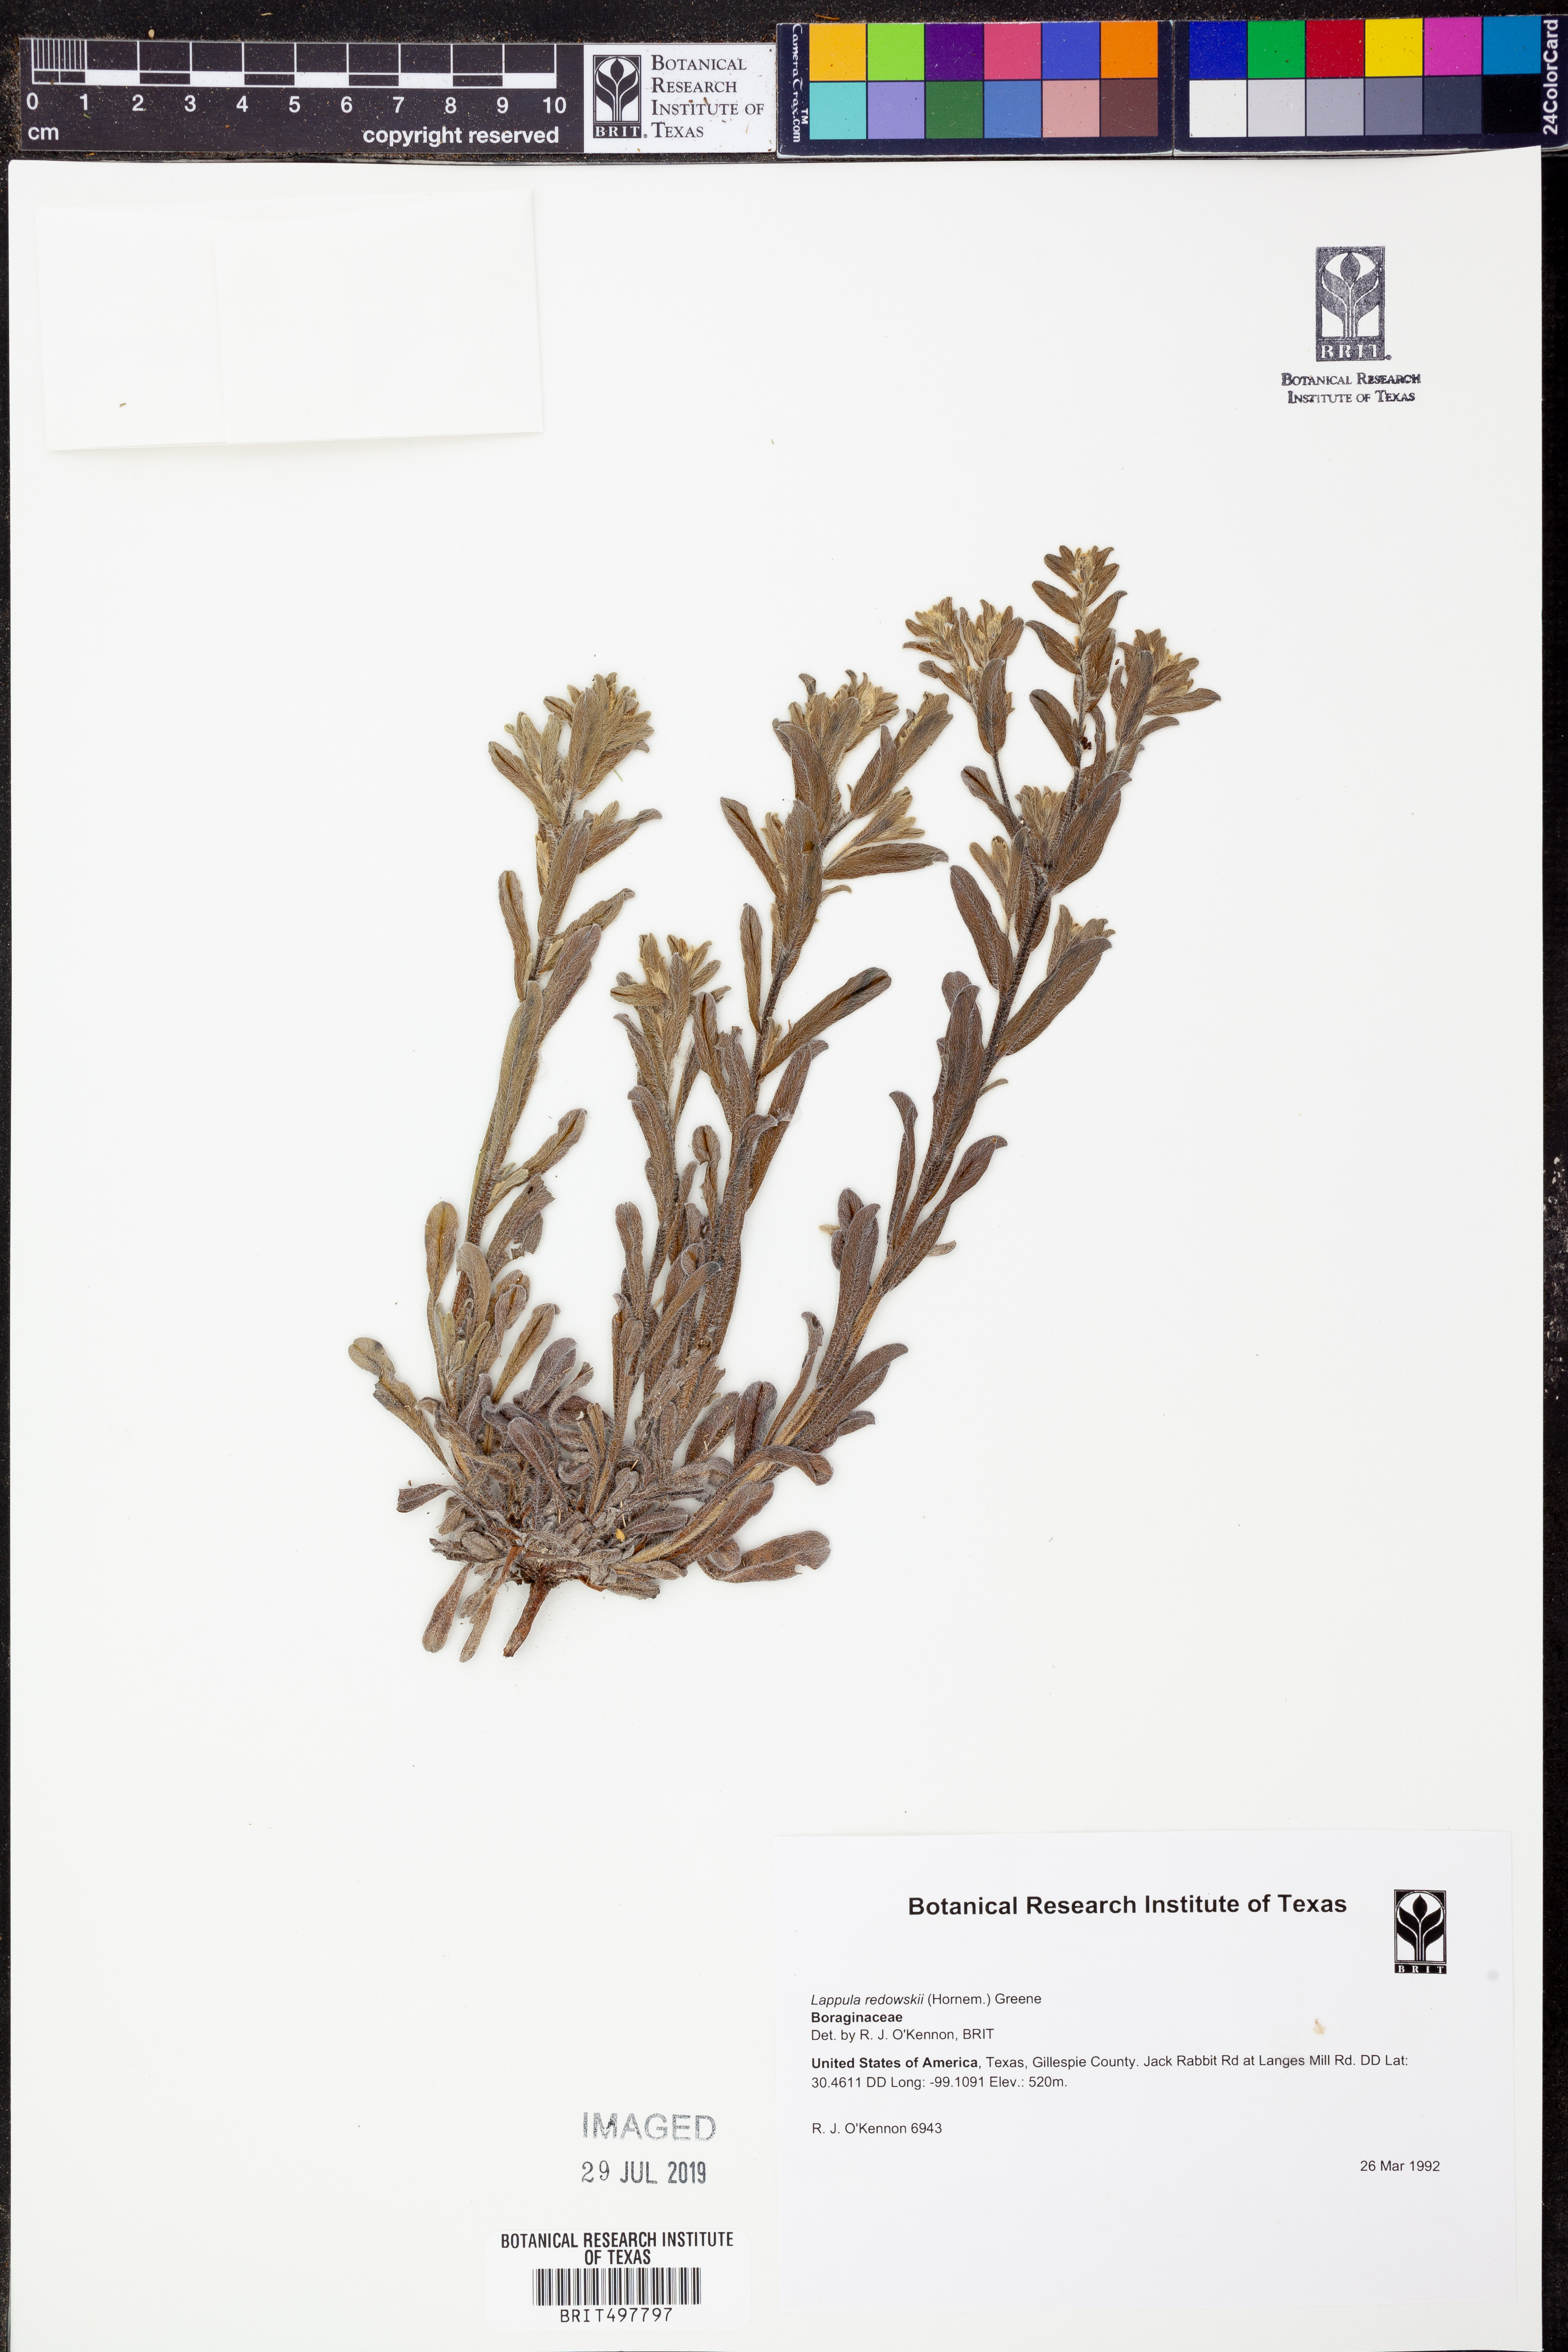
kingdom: Plantae
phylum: Tracheophyta
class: Magnoliopsida
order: Boraginales
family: Boraginaceae
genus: Lappula
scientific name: Lappula redowskii
